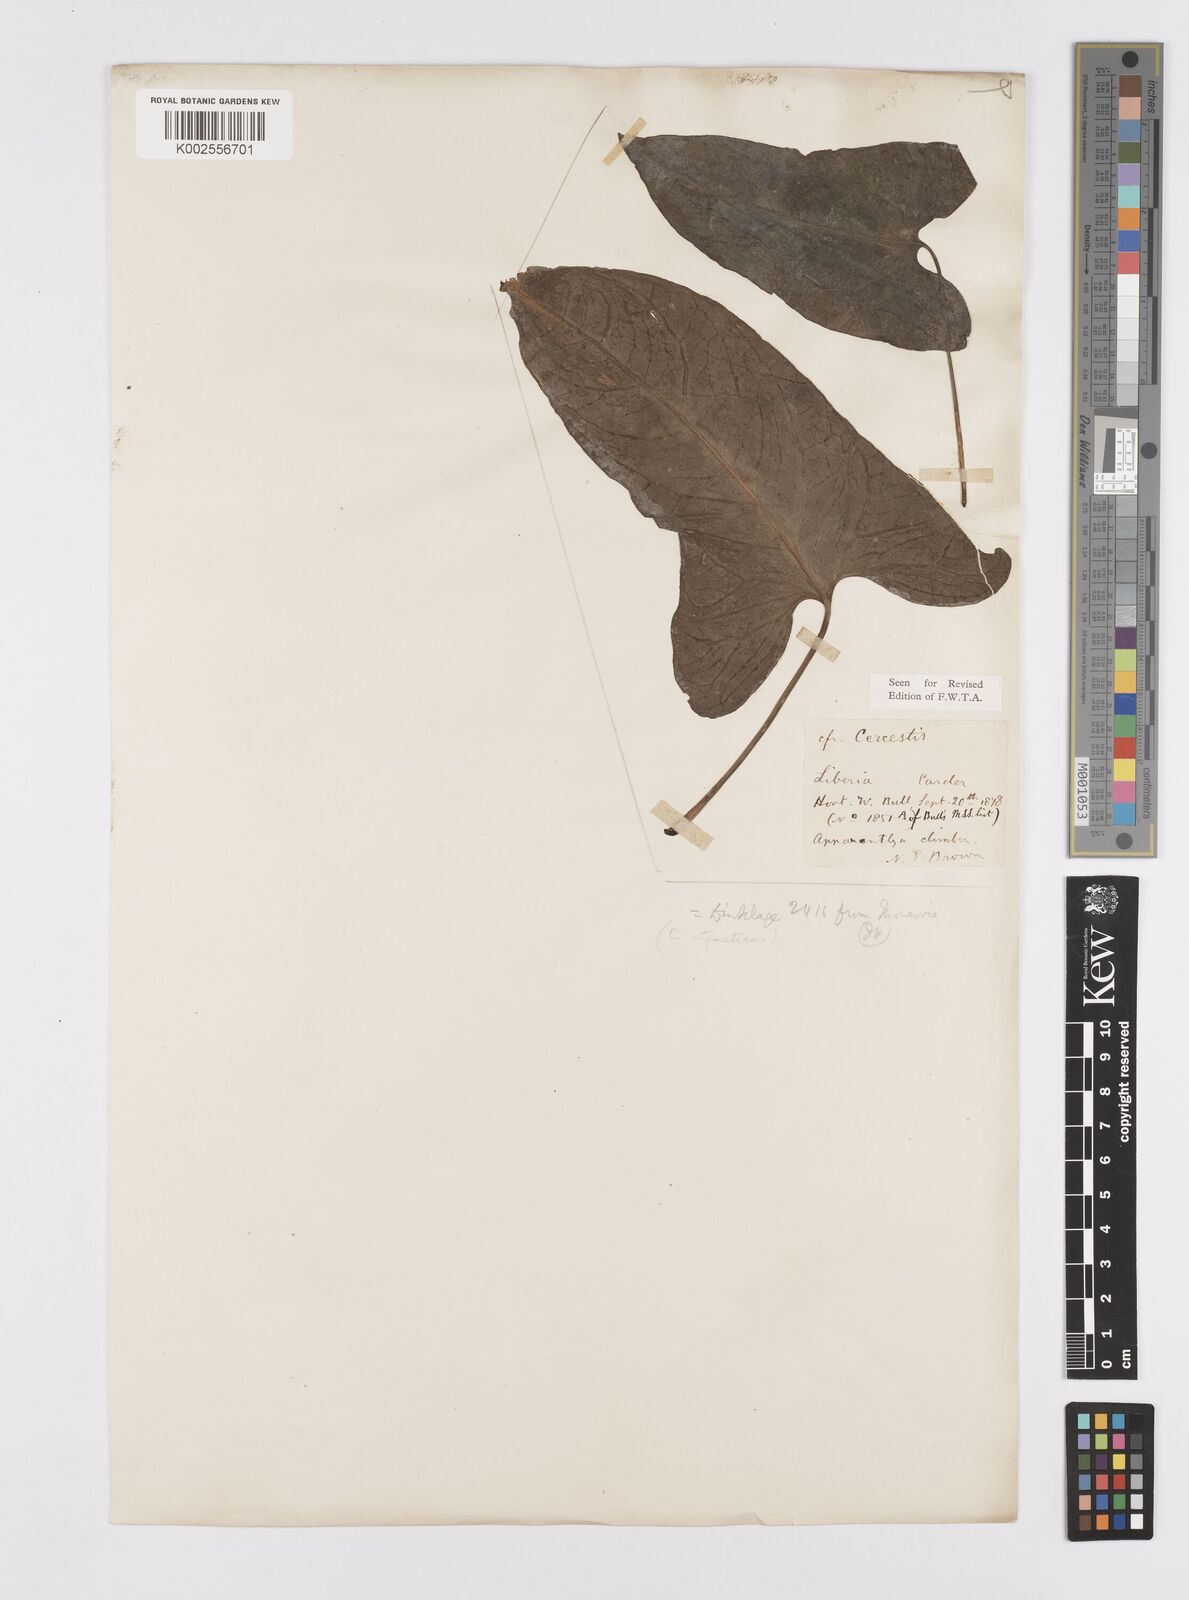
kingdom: Plantae
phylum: Tracheophyta
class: Liliopsida
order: Alismatales
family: Araceae
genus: Cercestis
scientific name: Cercestis dinklagei
